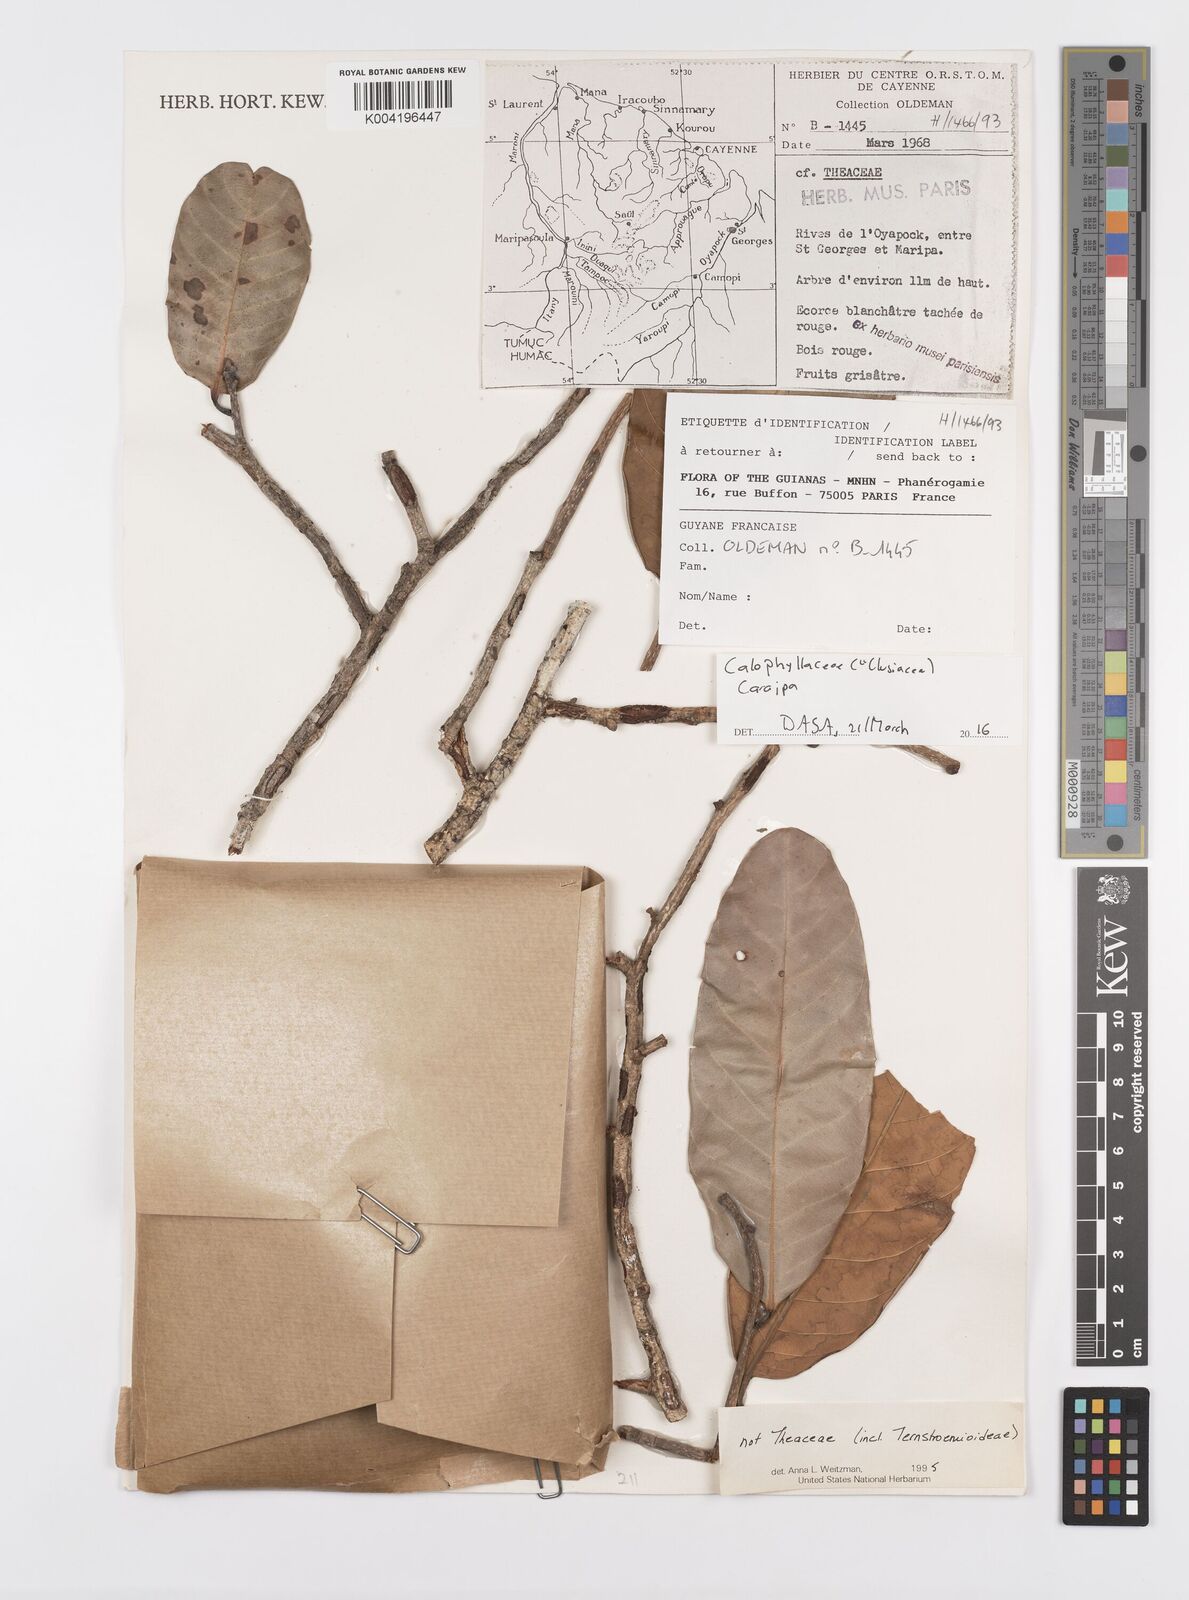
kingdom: Plantae
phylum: Tracheophyta
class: Magnoliopsida
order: Malpighiales
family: Calophyllaceae
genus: Caraipa
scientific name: Caraipa
